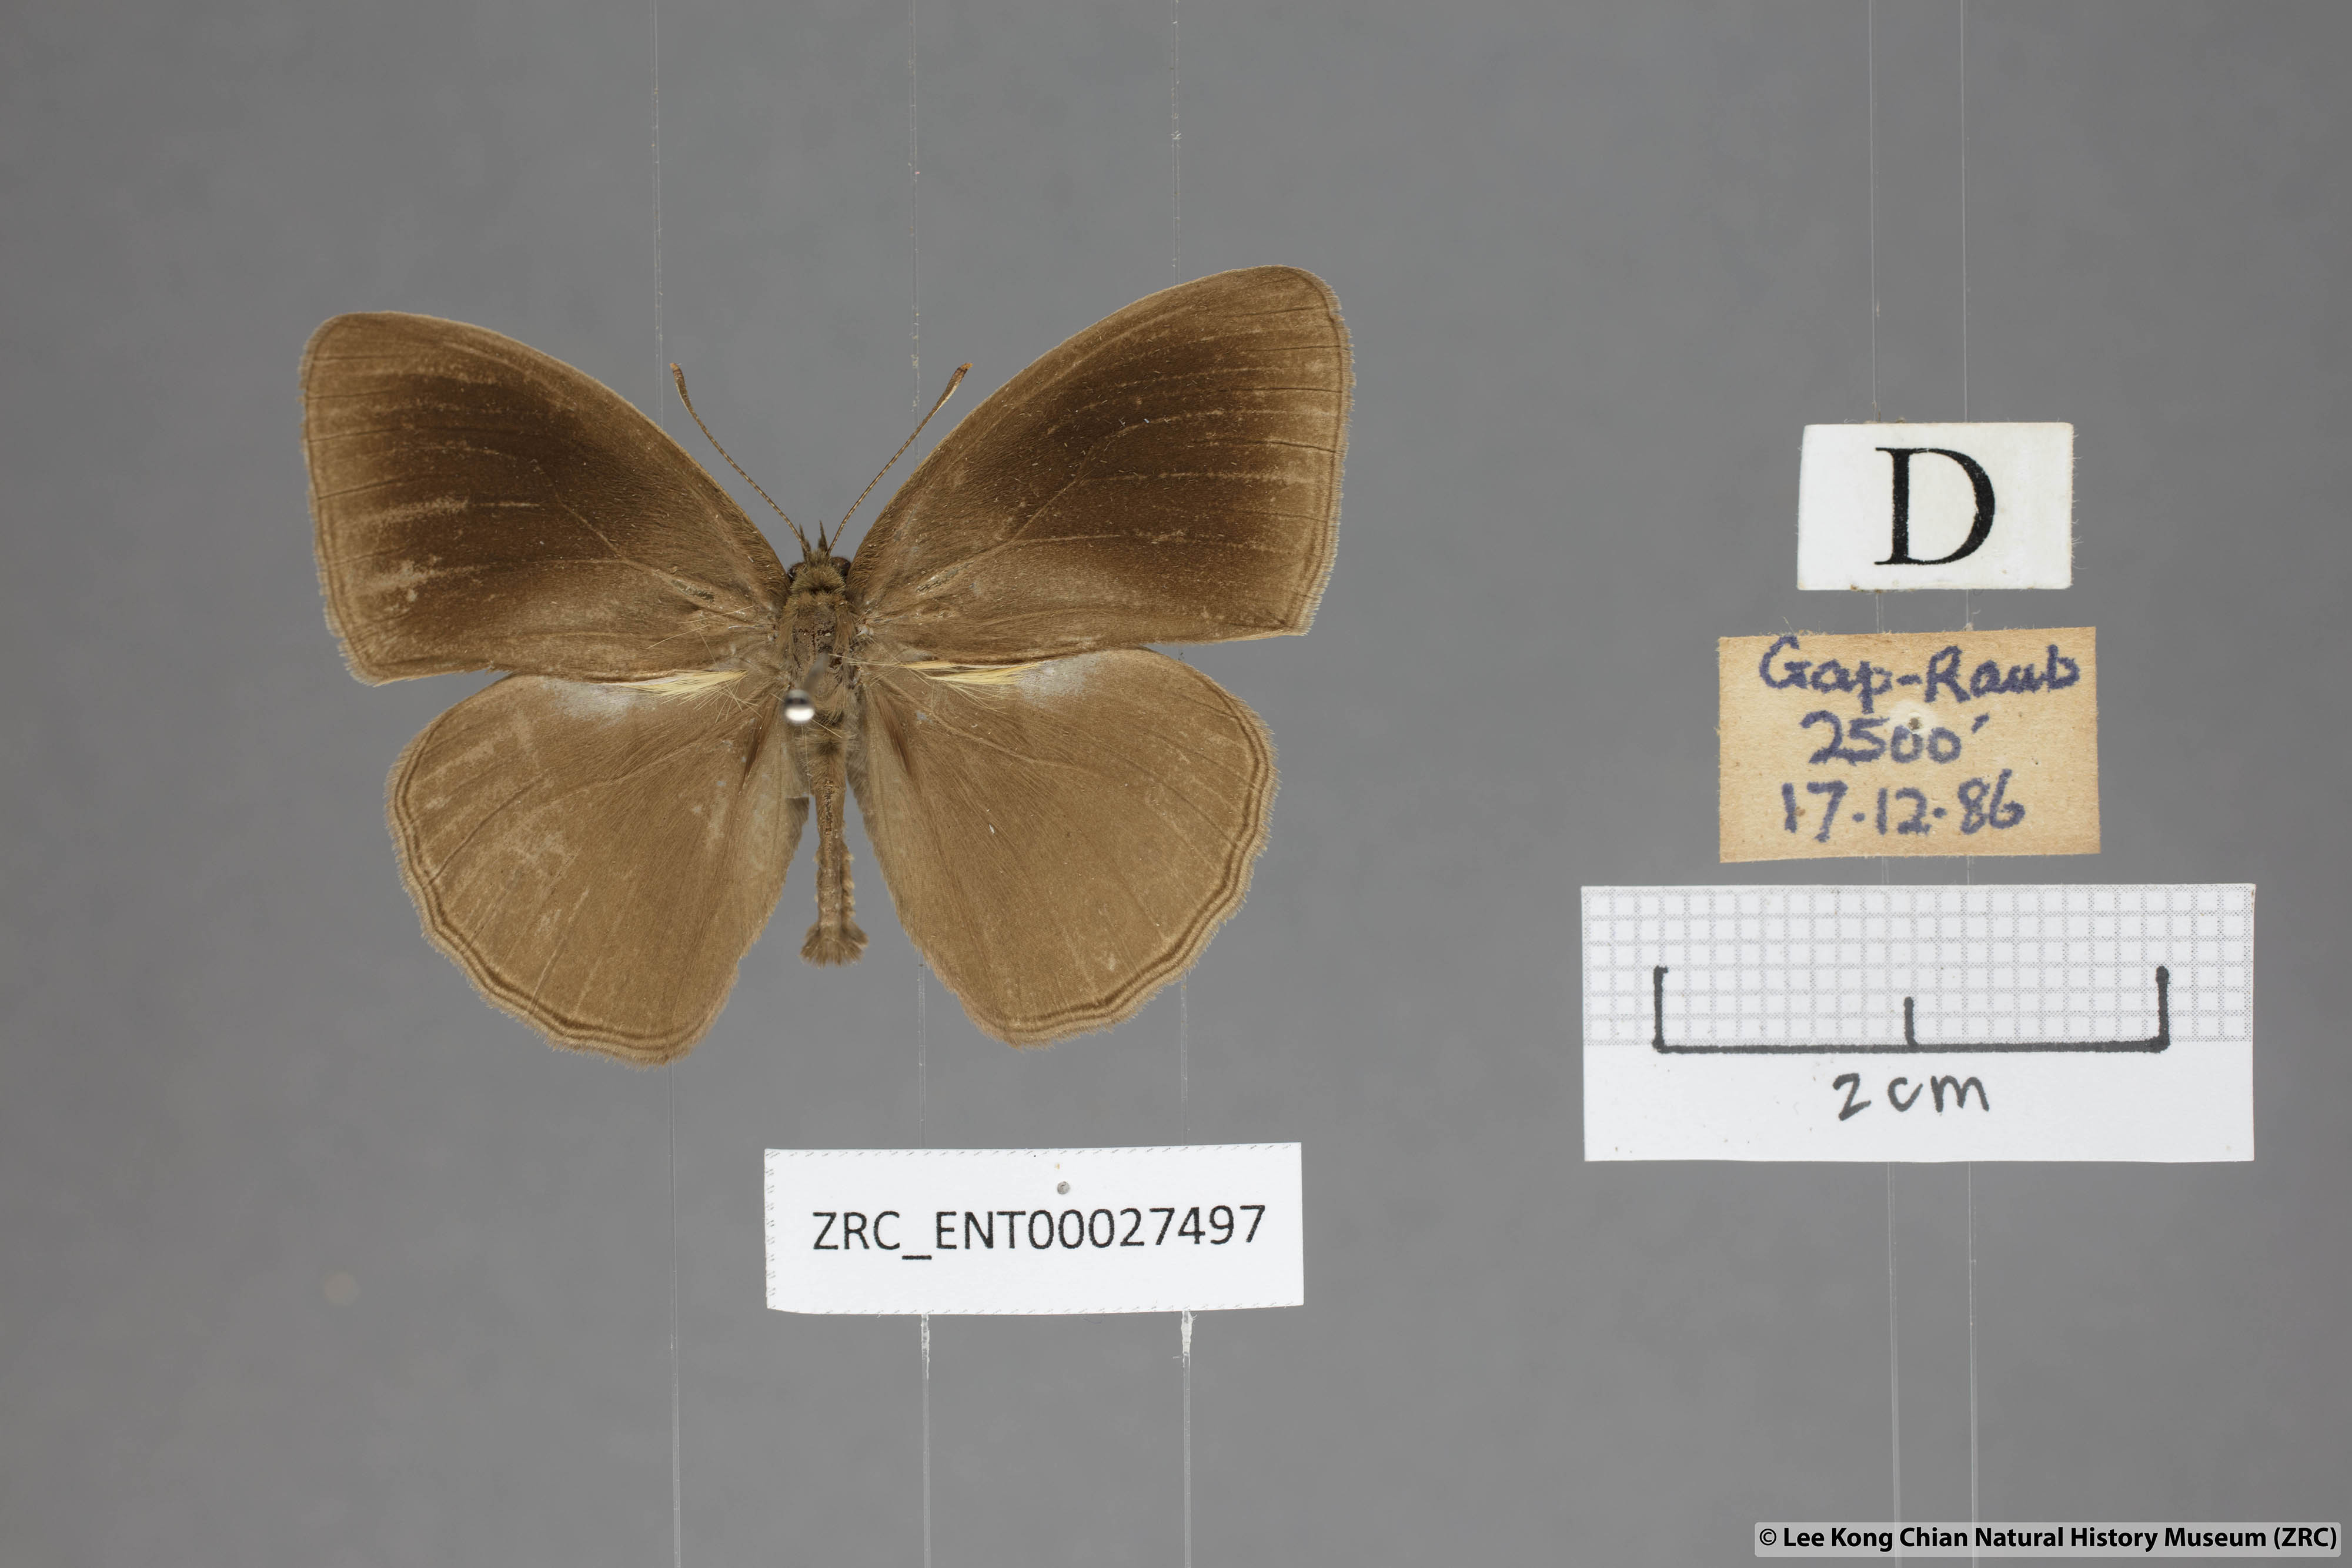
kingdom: Animalia
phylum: Arthropoda
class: Insecta
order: Lepidoptera
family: Nymphalidae
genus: Mycalesis
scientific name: Mycalesis janardana
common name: Common bush brown
